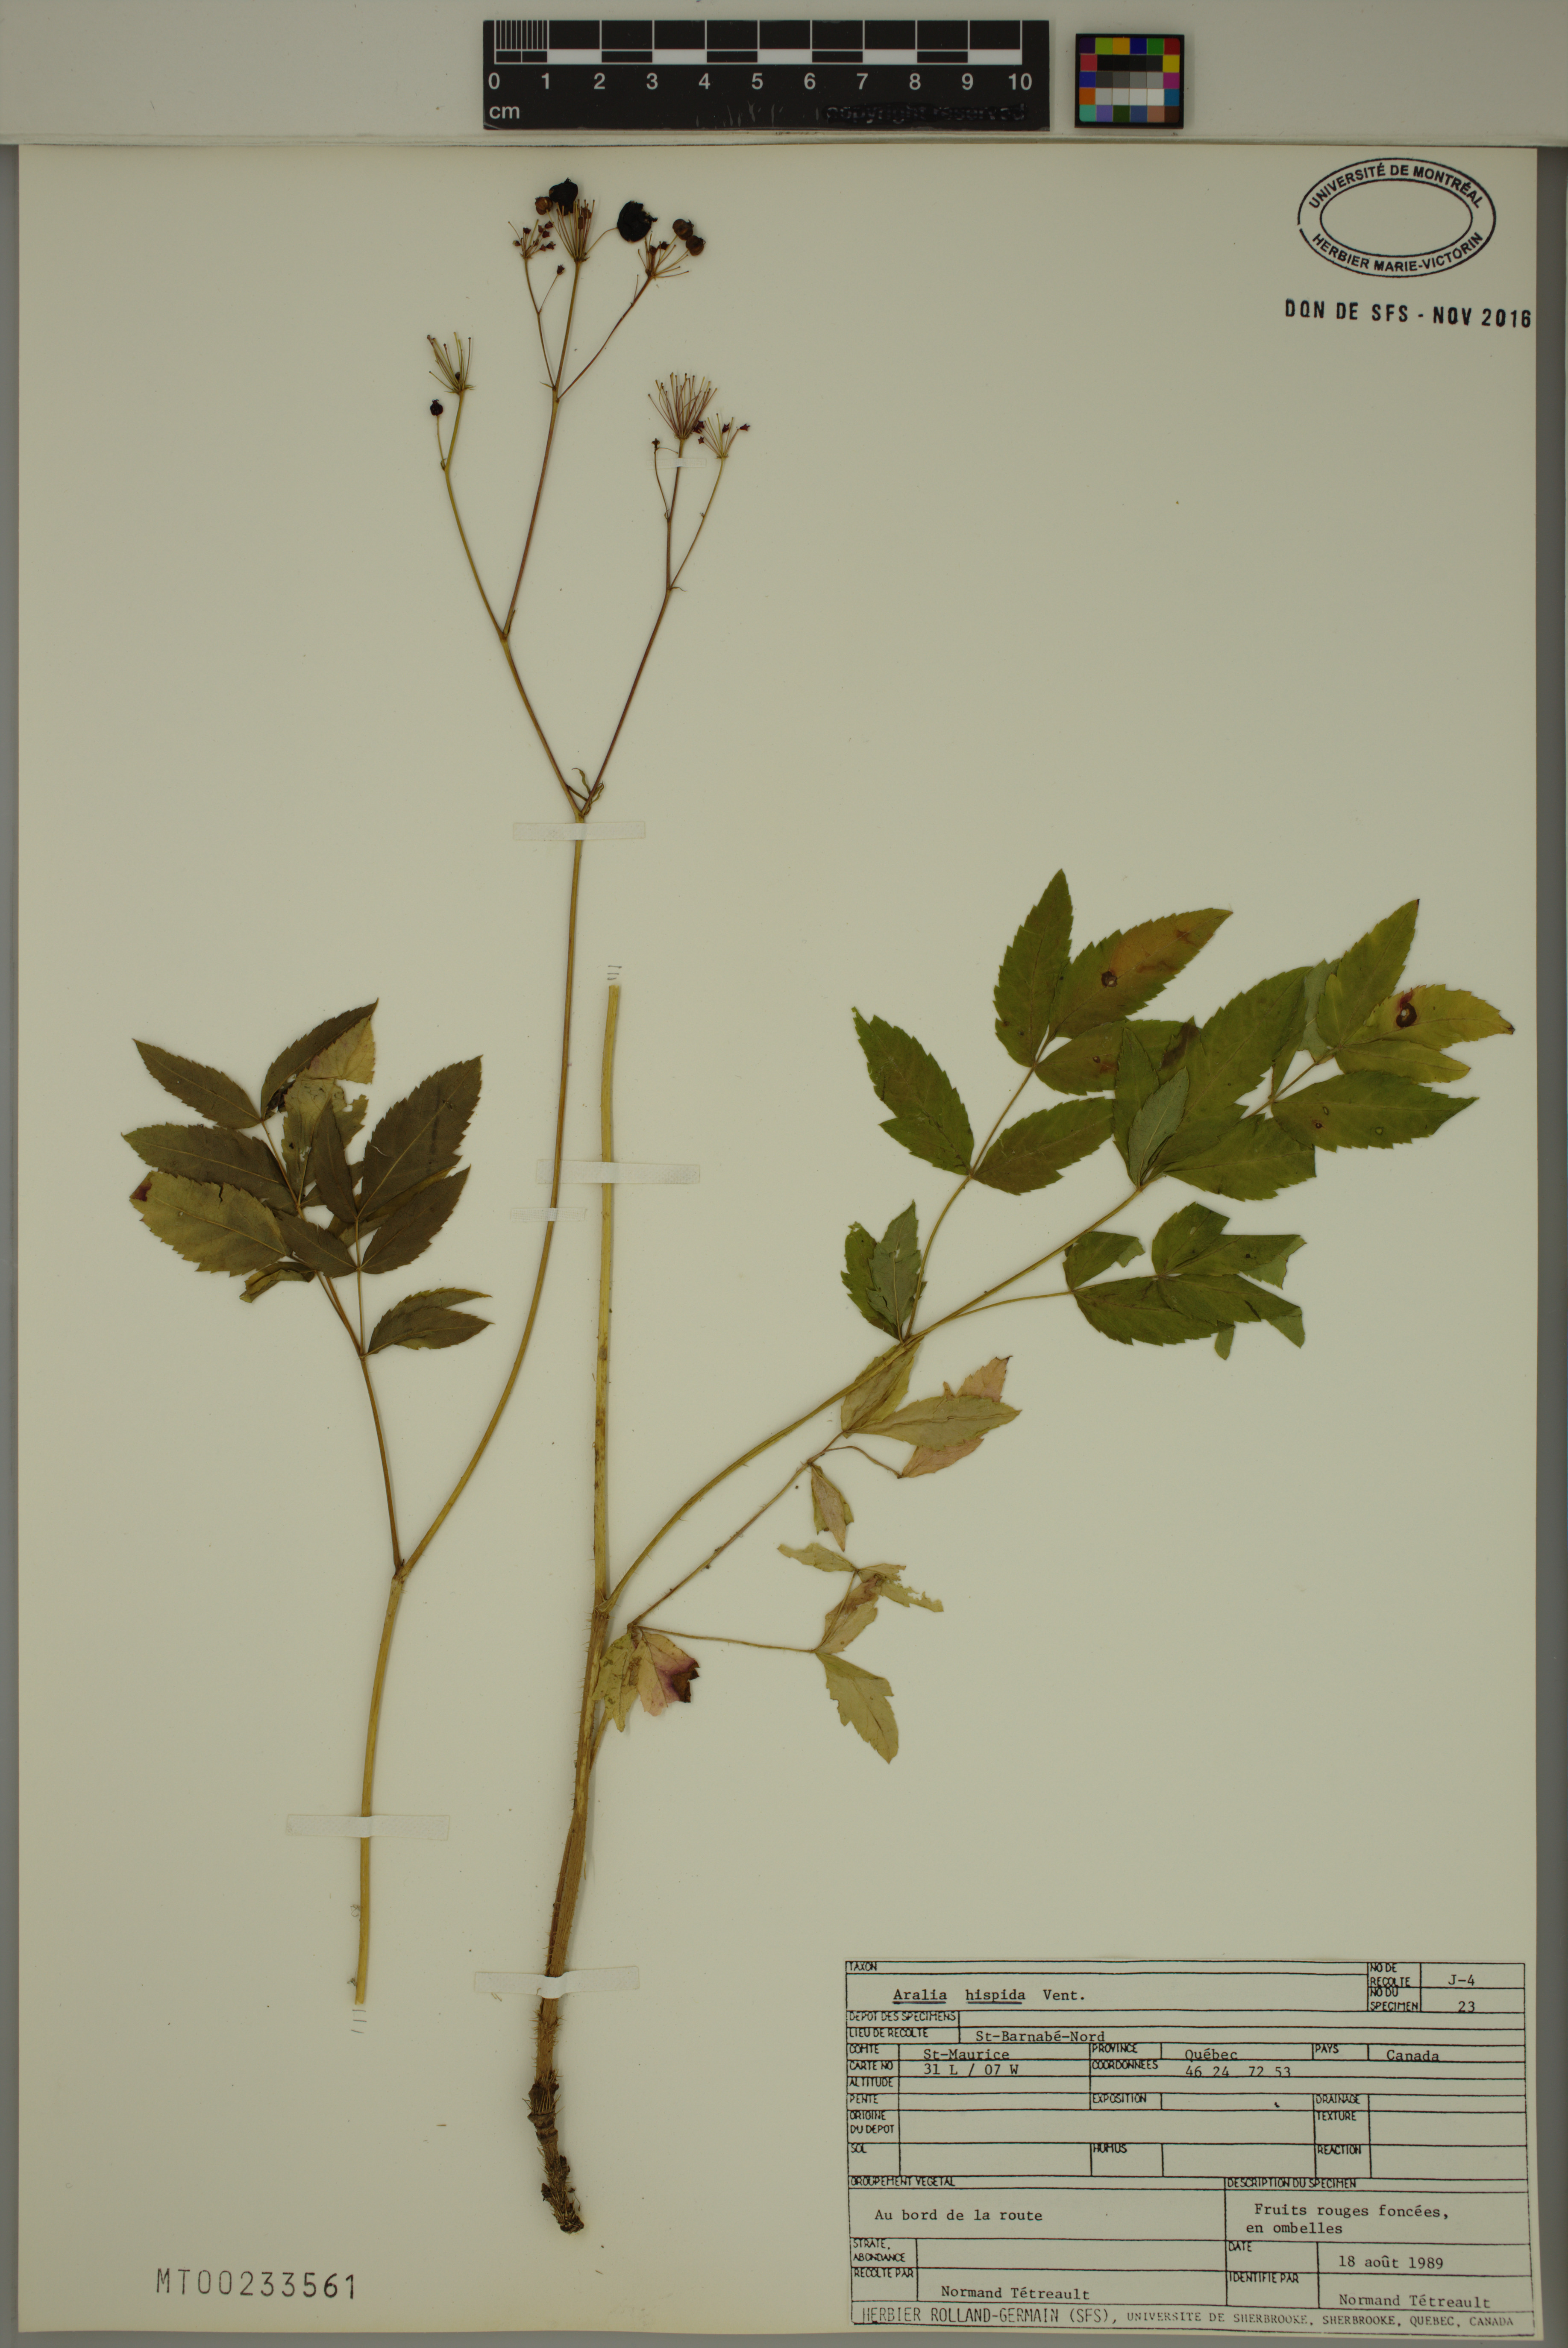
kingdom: Plantae
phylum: Tracheophyta
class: Magnoliopsida
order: Apiales
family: Araliaceae
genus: Aralia
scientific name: Aralia hispida
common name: Bristly sarsaparilla
